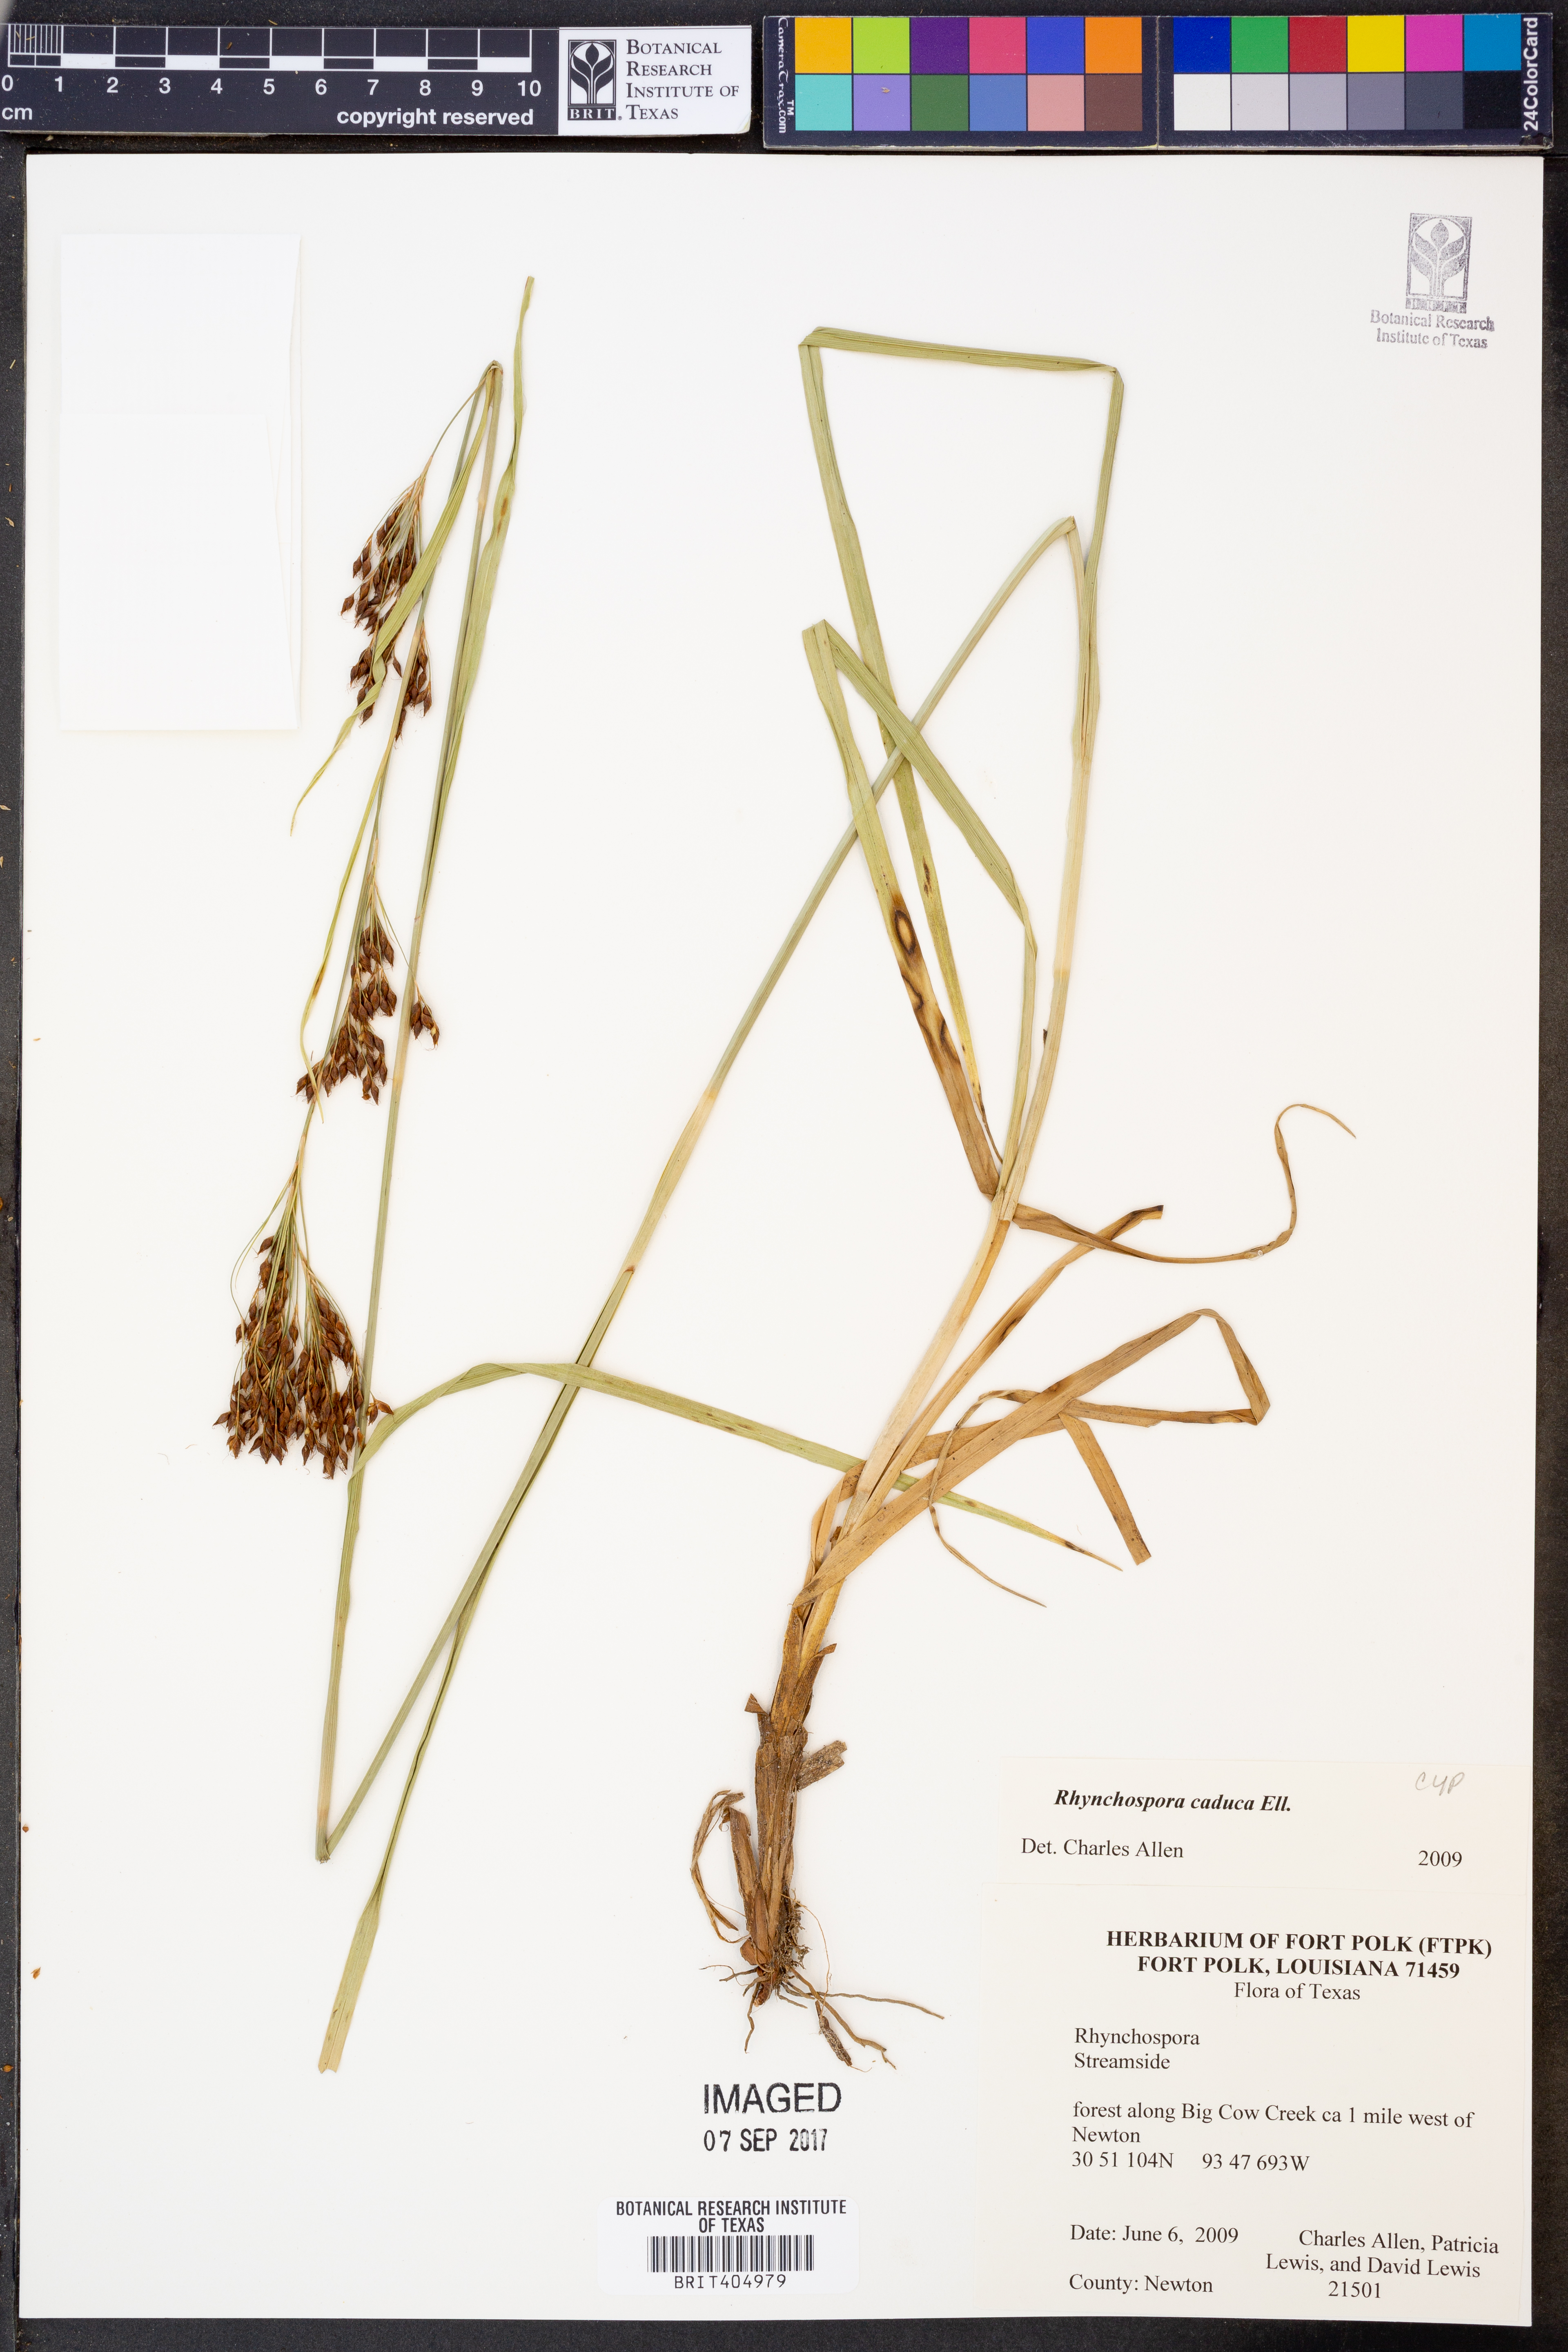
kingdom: Plantae
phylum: Tracheophyta
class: Liliopsida
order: Poales
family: Cyperaceae
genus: Rhynchospora
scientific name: Rhynchospora caduca
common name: Anglestem beaksedge
